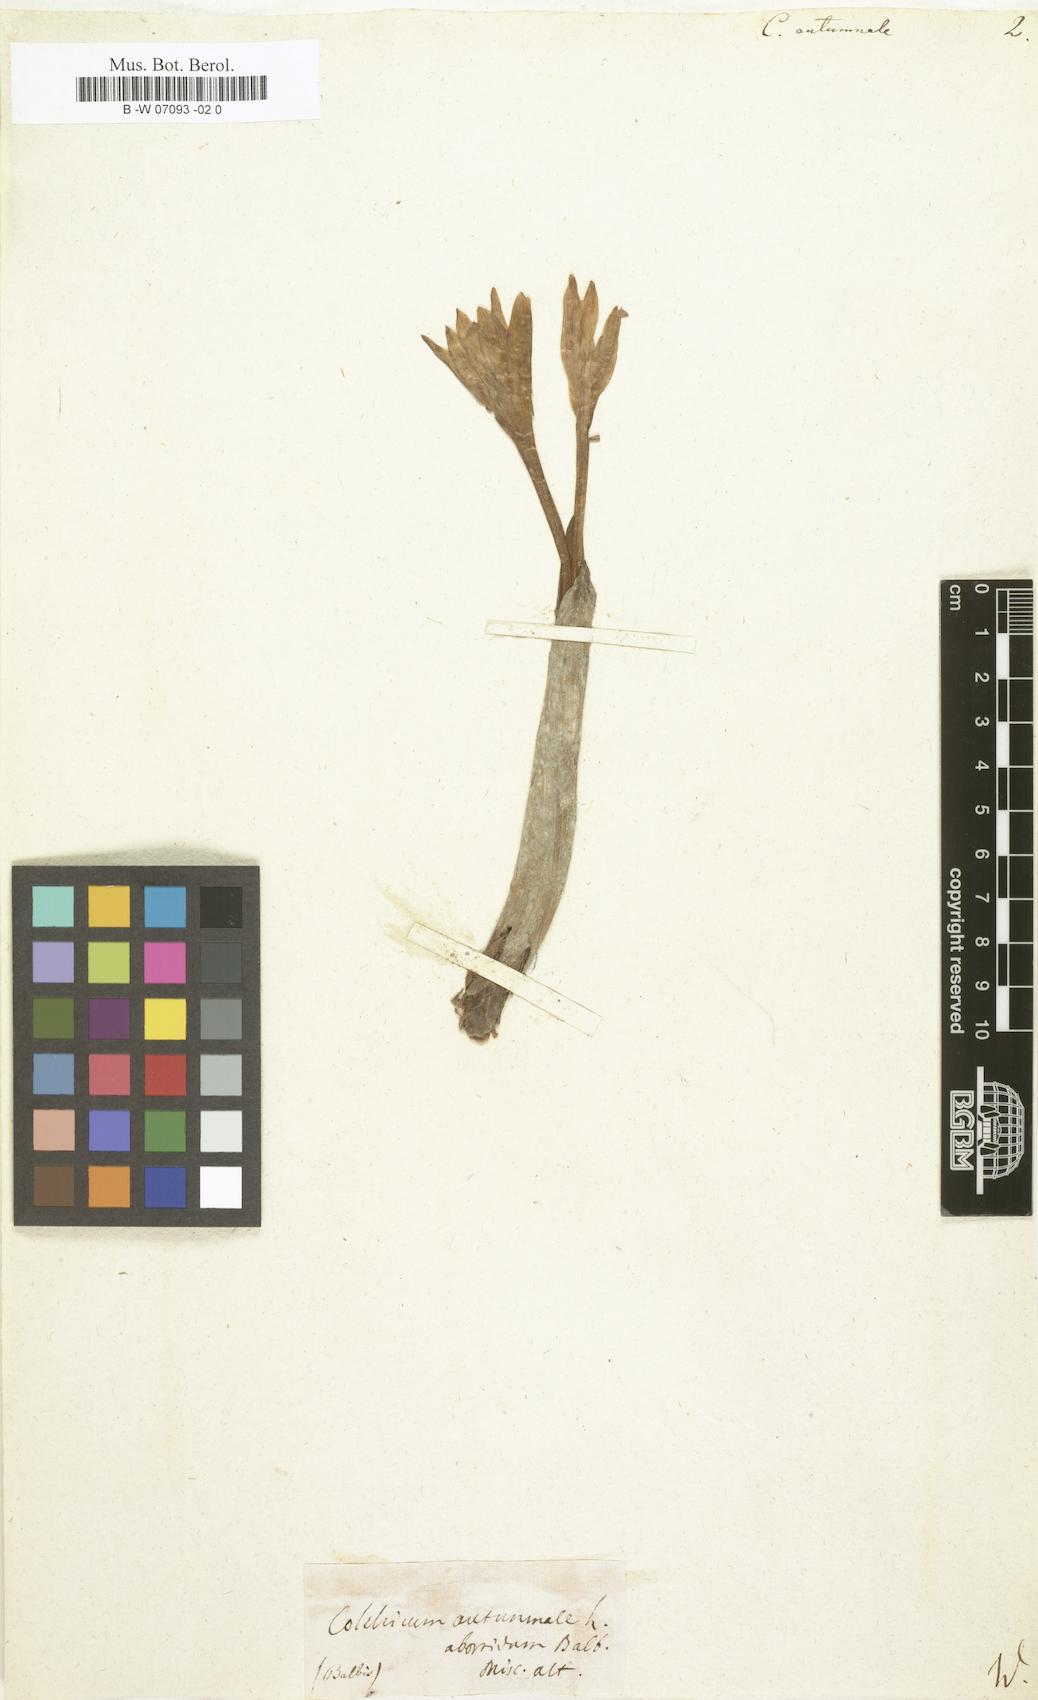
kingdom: Plantae
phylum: Tracheophyta
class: Liliopsida
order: Liliales
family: Colchicaceae
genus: Colchicum
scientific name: Colchicum autumnale
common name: Autumn crocus
